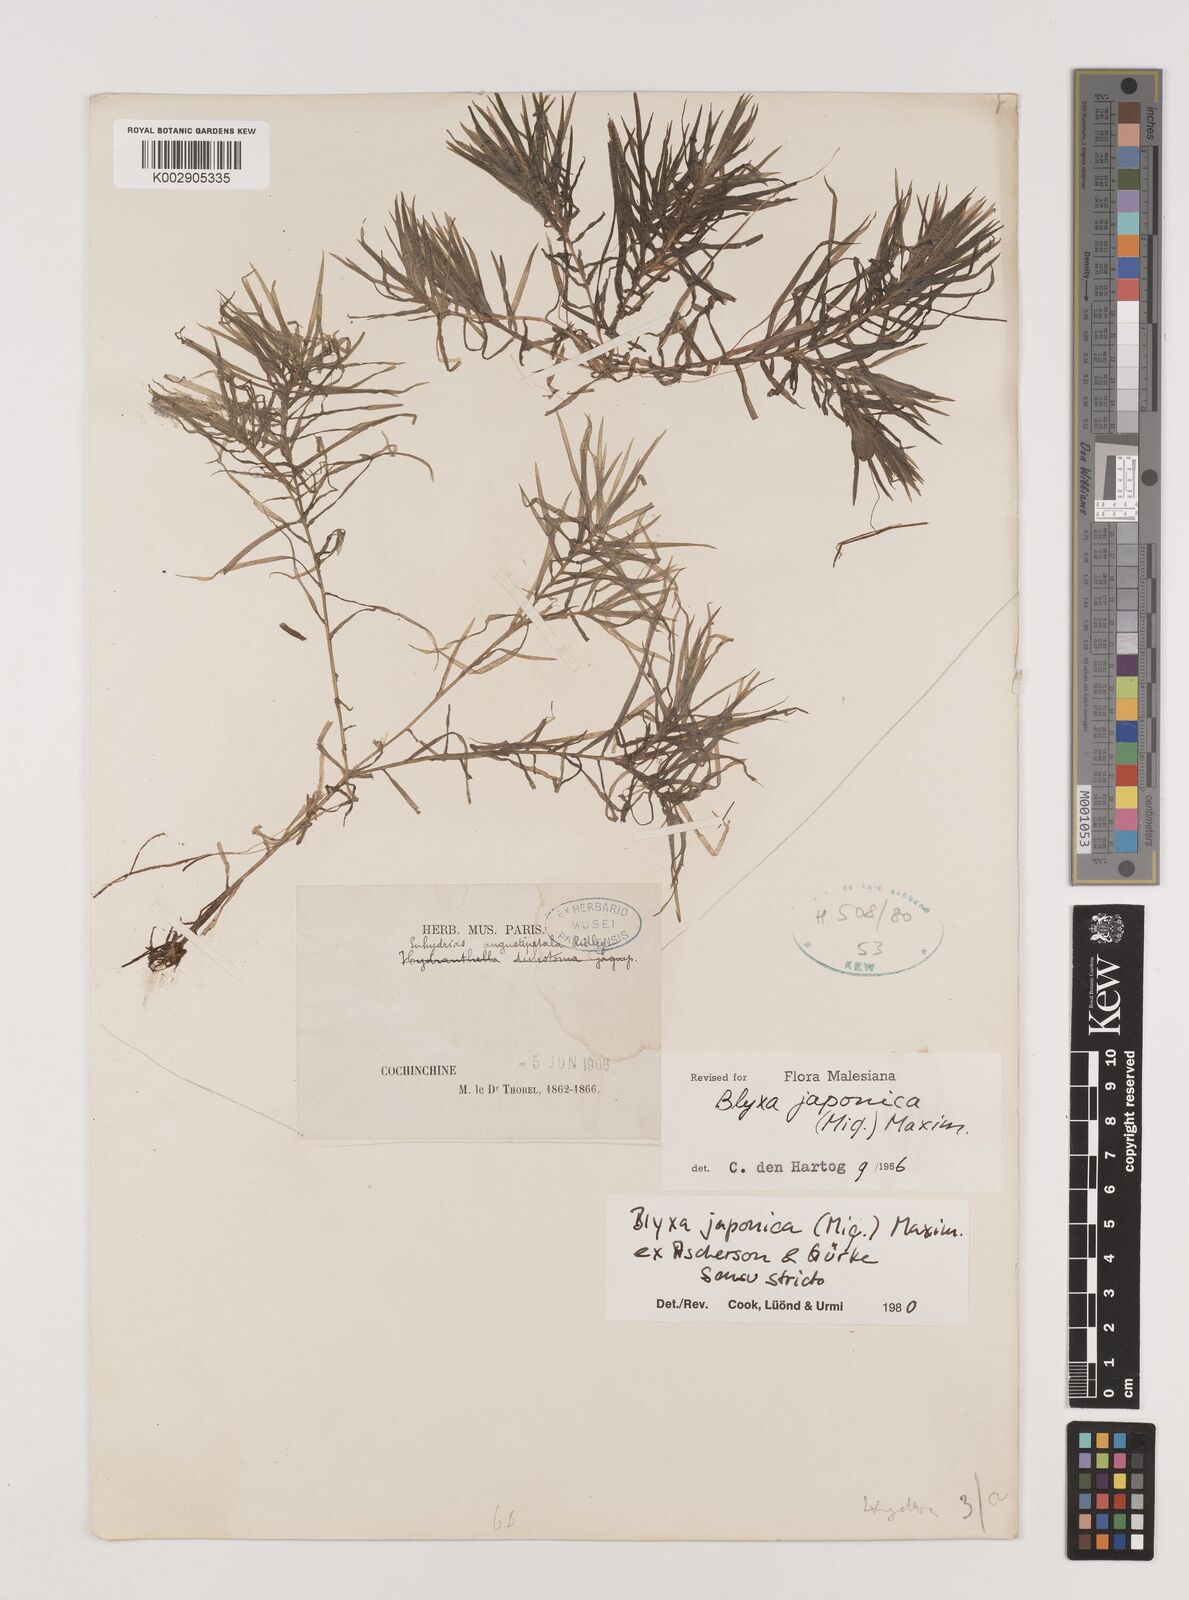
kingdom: Plantae
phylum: Tracheophyta
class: Liliopsida
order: Alismatales
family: Hydrocharitaceae
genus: Blyxa
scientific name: Blyxa japonica
